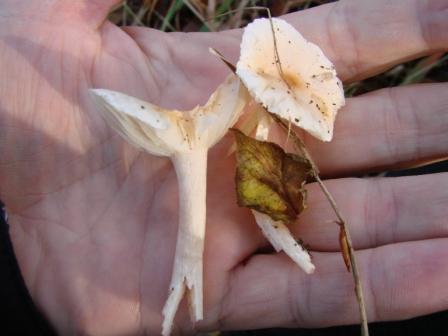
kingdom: Fungi
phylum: Basidiomycota
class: Agaricomycetes
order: Agaricales
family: Hygrophoraceae
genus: Hygrophorus
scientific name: Hygrophorus unicolor
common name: orangeøjet sneglehat
